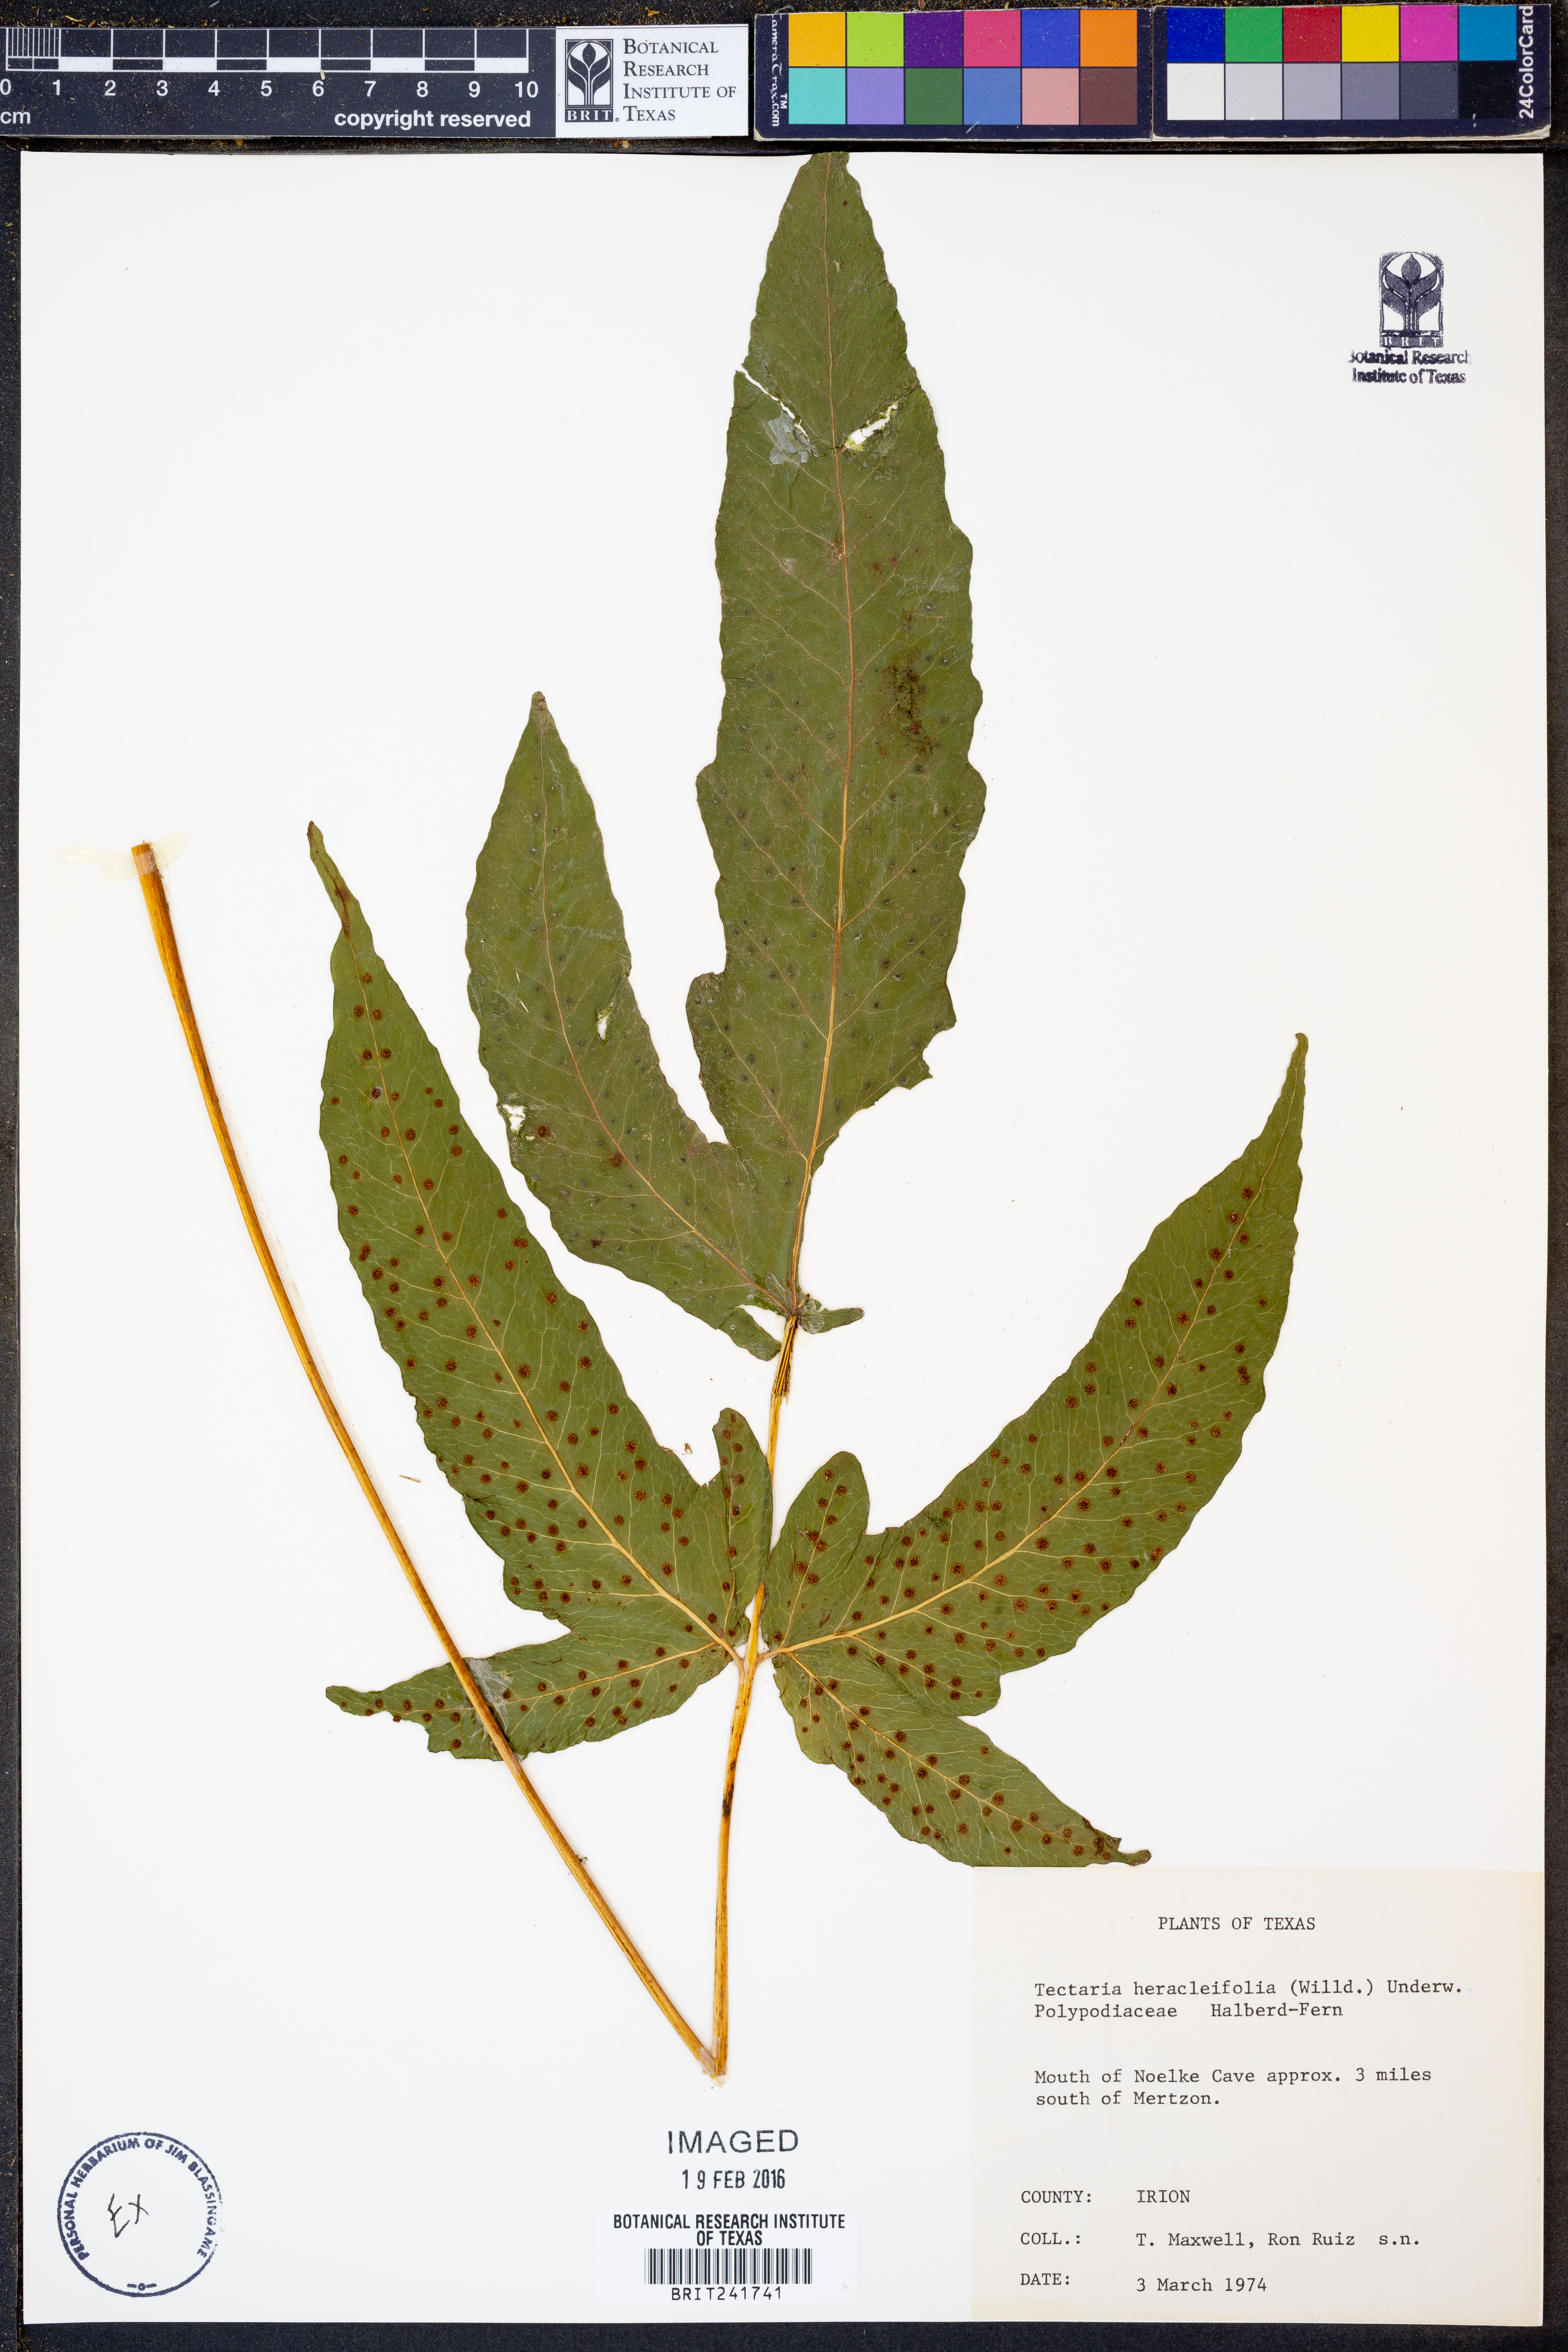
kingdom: Plantae
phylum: Tracheophyta
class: Polypodiopsida
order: Polypodiales
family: Tectariaceae
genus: Tectaria
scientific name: Tectaria heracleifolia
